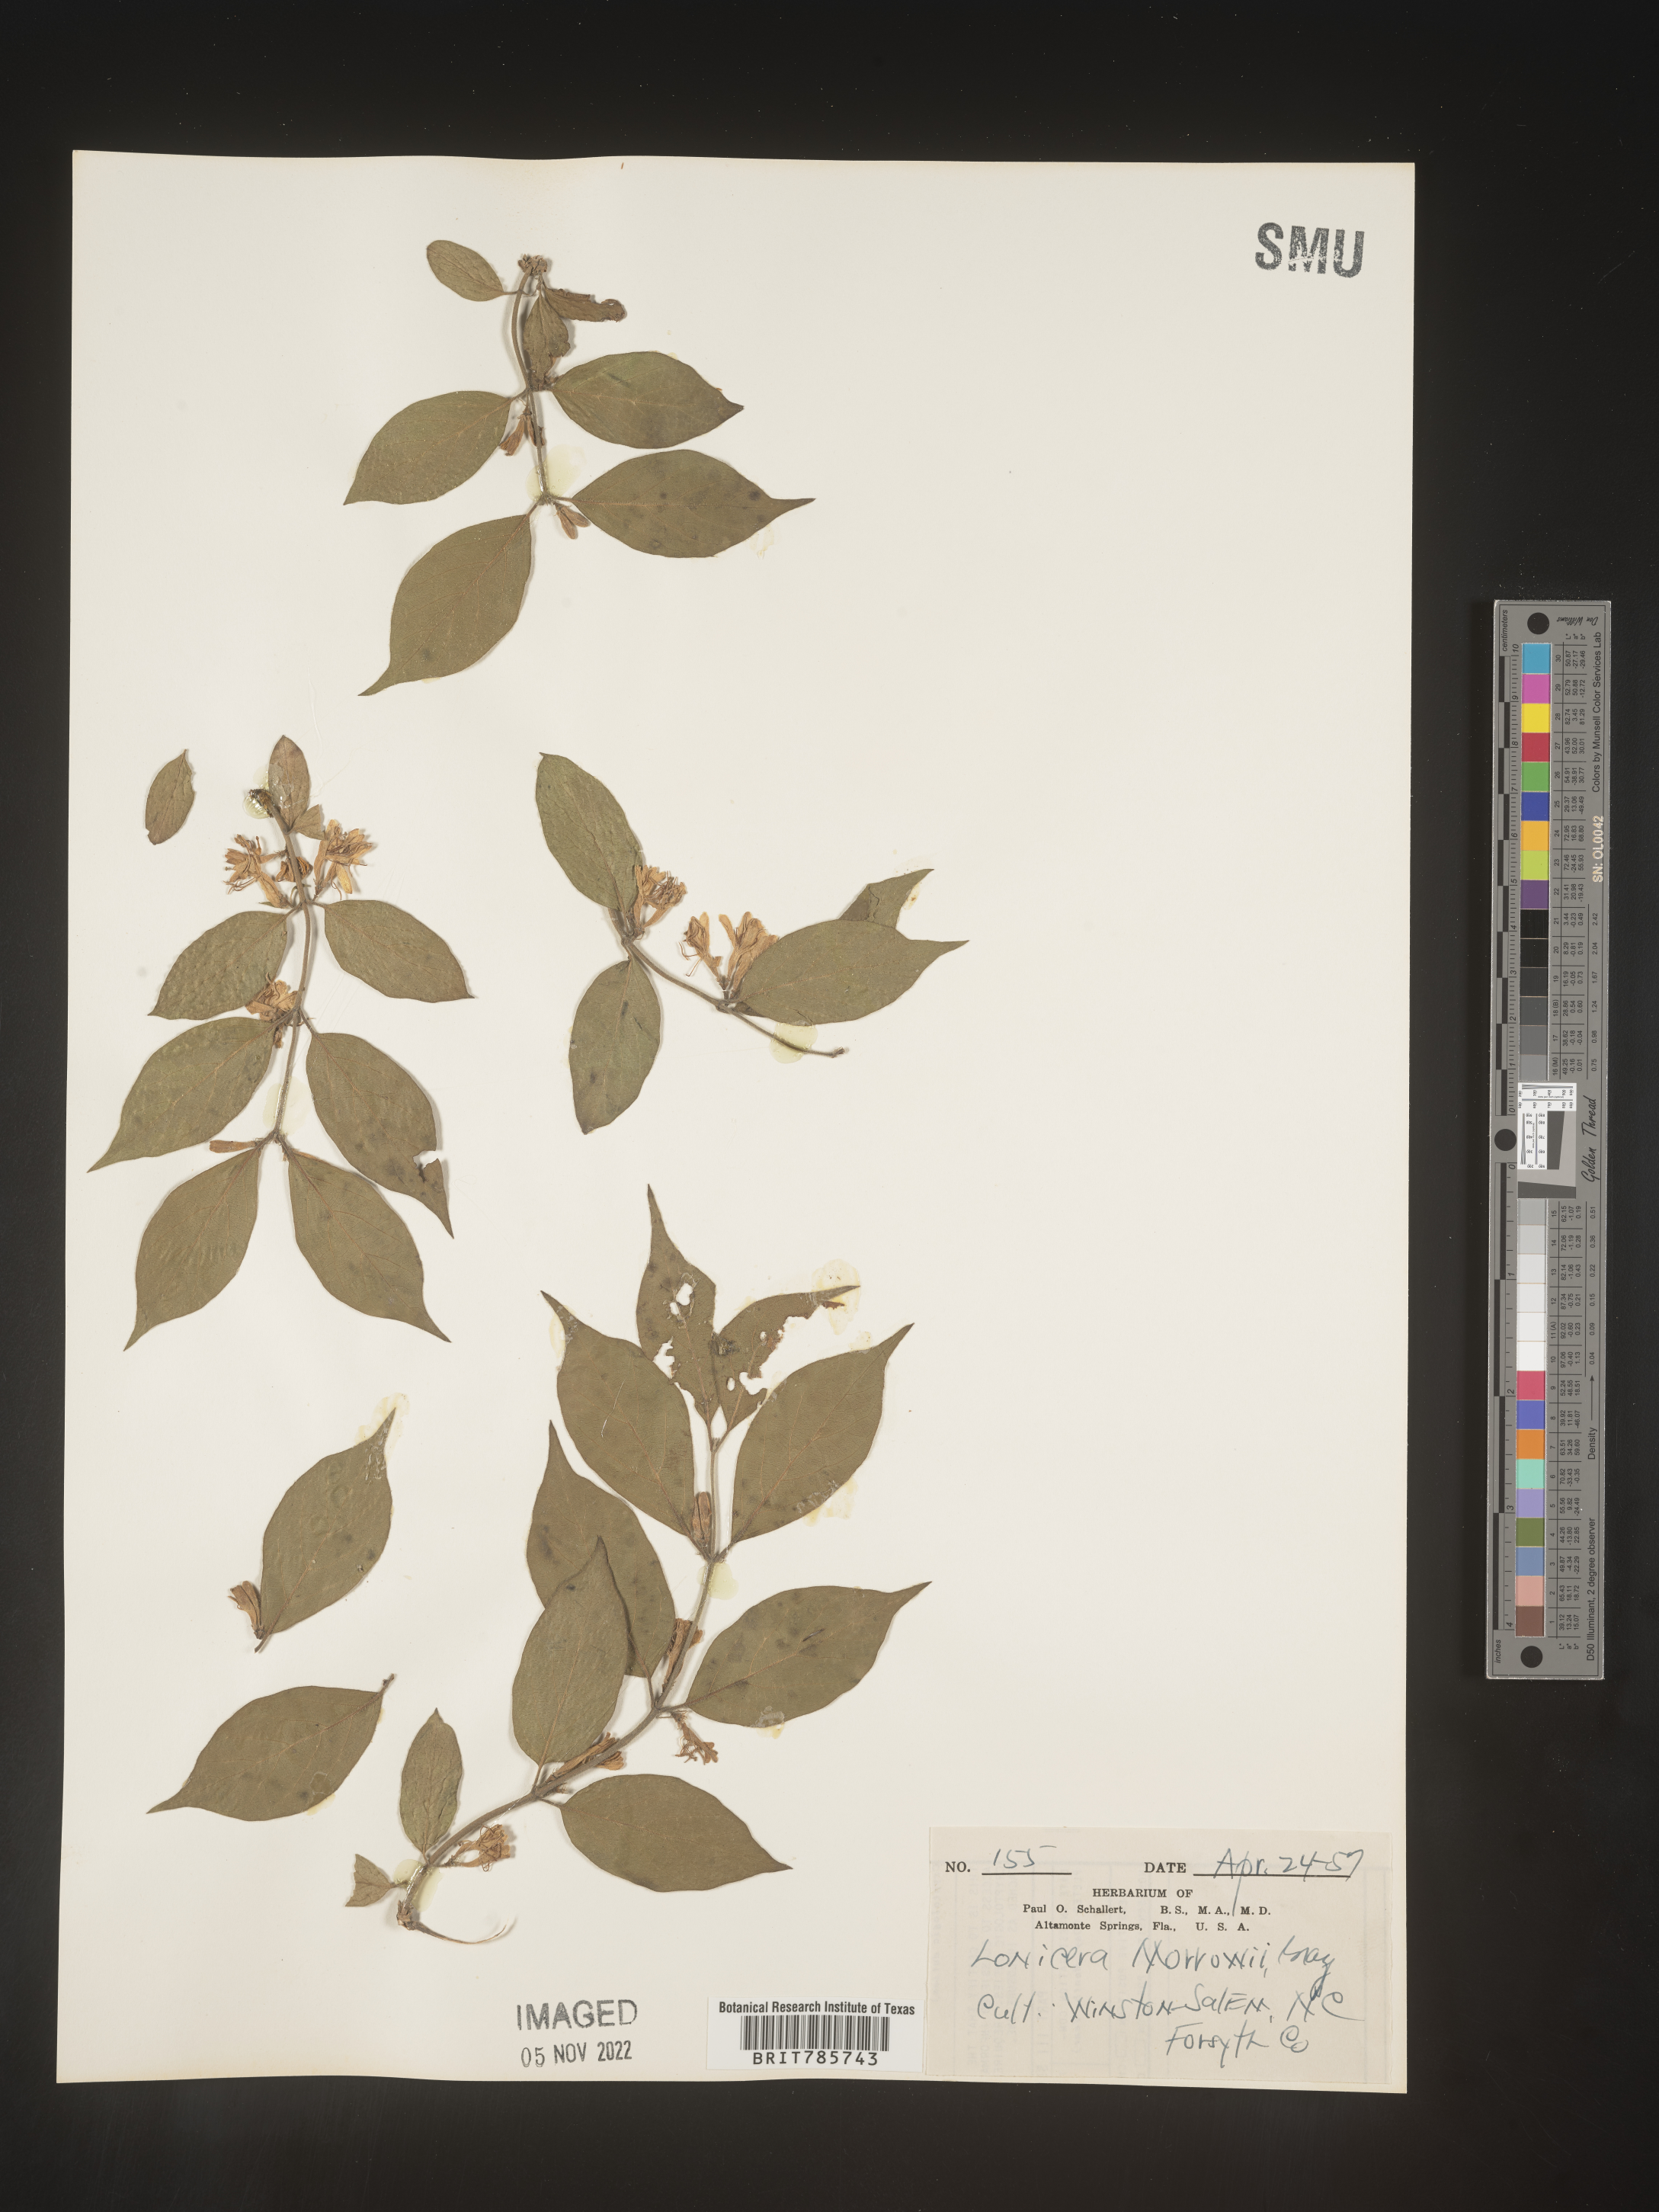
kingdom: Plantae
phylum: Tracheophyta
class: Magnoliopsida
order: Dipsacales
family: Caprifoliaceae
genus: Lonicera
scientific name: Lonicera
